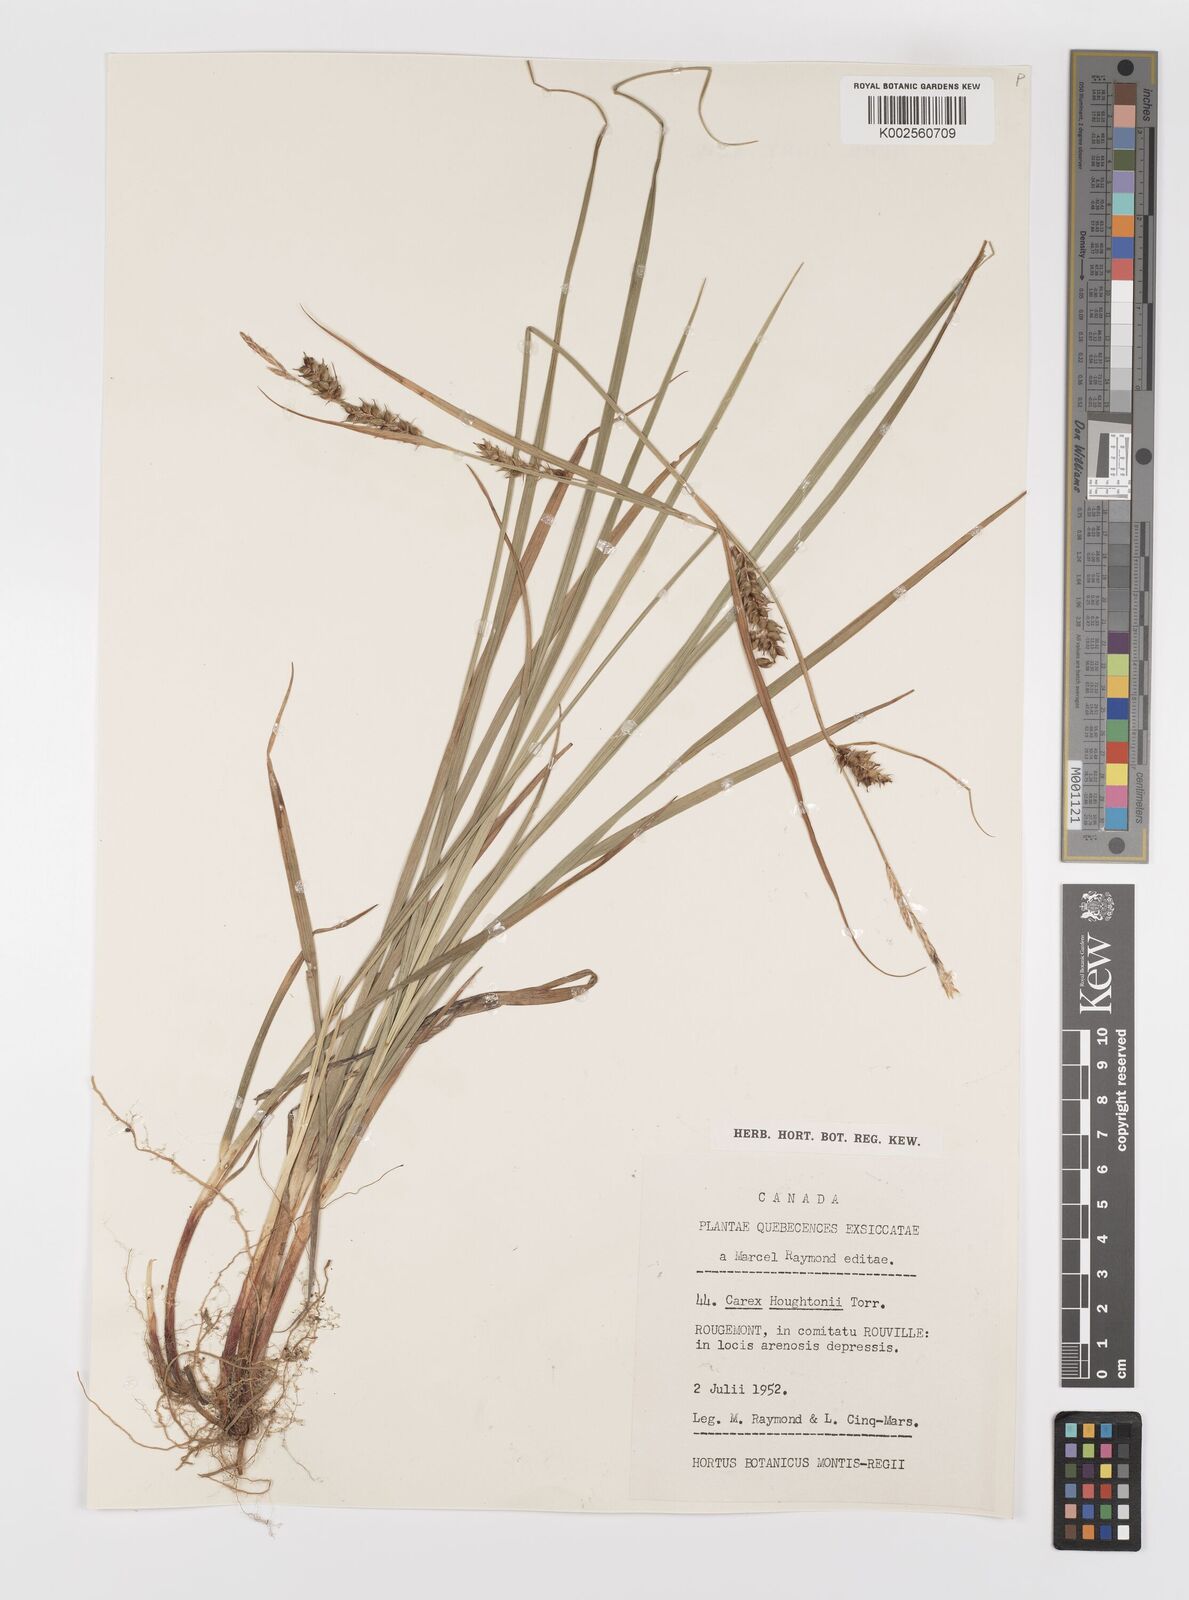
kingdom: Plantae
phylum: Tracheophyta
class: Liliopsida
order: Poales
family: Cyperaceae
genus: Carex
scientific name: Carex houghtoniana
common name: Houghton's sedge
